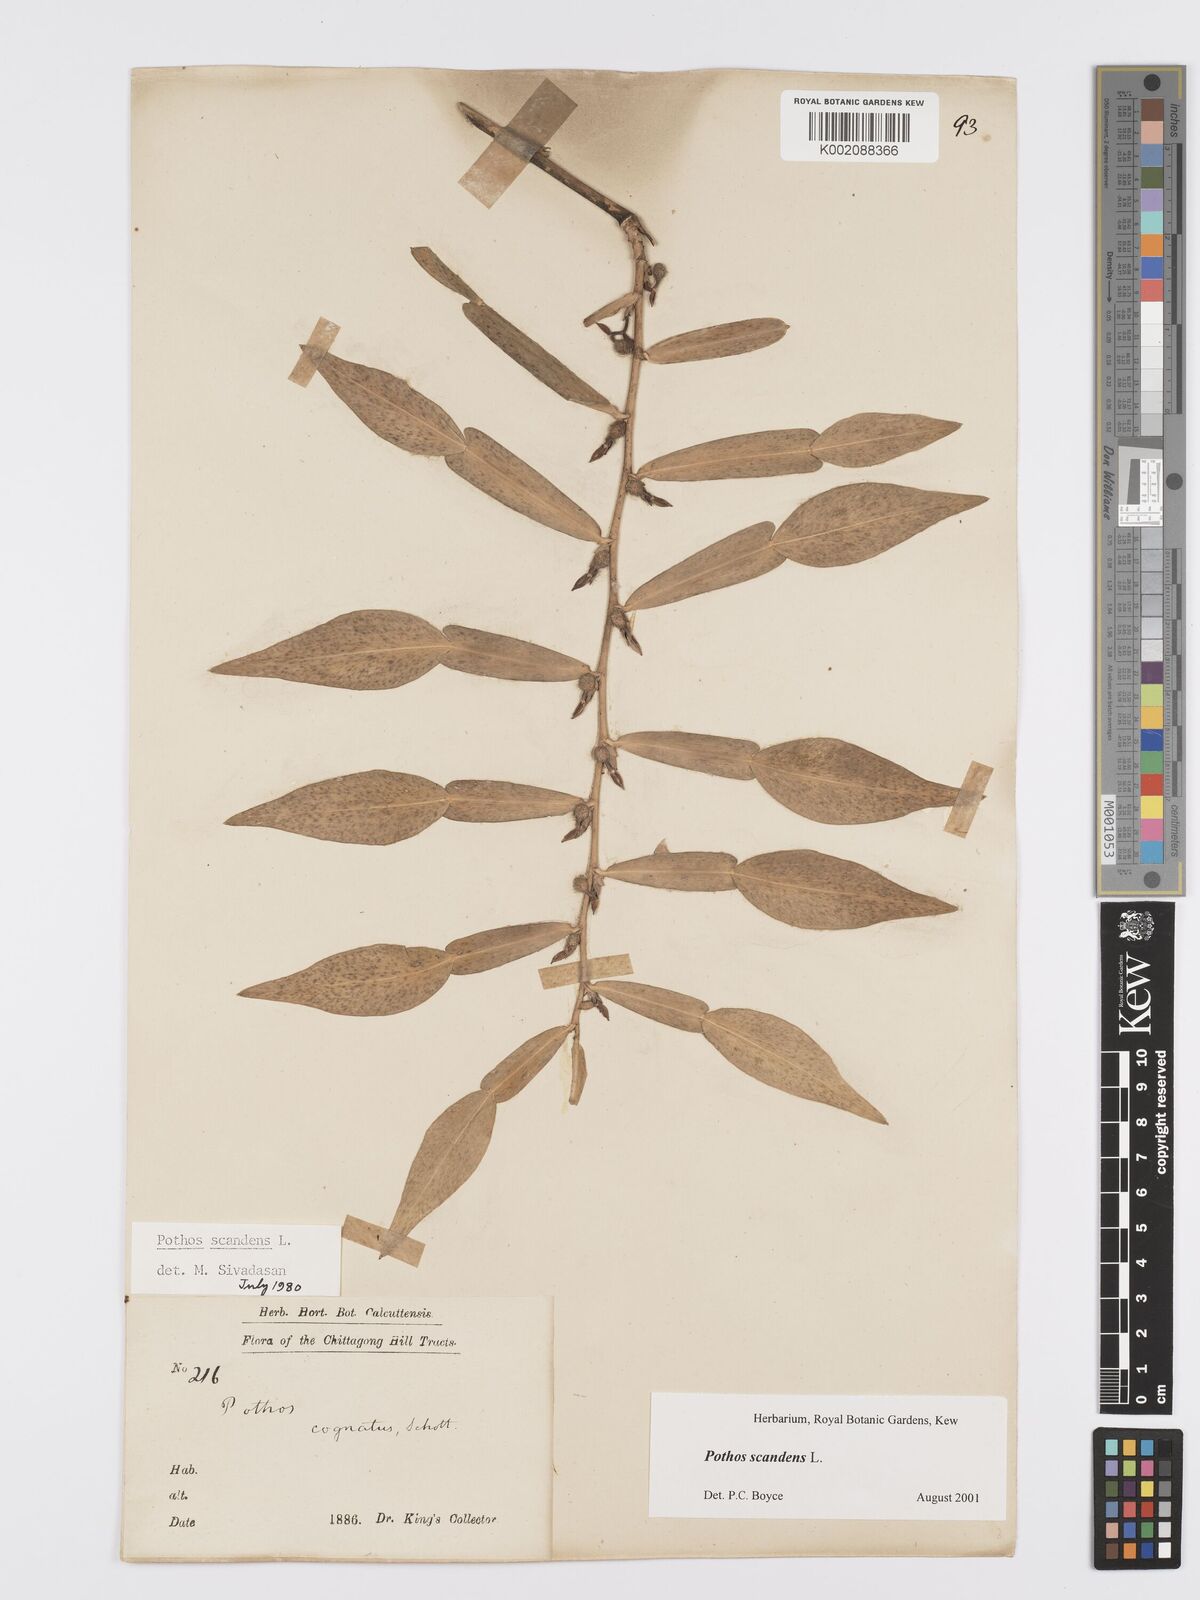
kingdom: Plantae
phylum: Tracheophyta
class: Liliopsida
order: Alismatales
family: Araceae
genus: Pothos
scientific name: Pothos scandens
